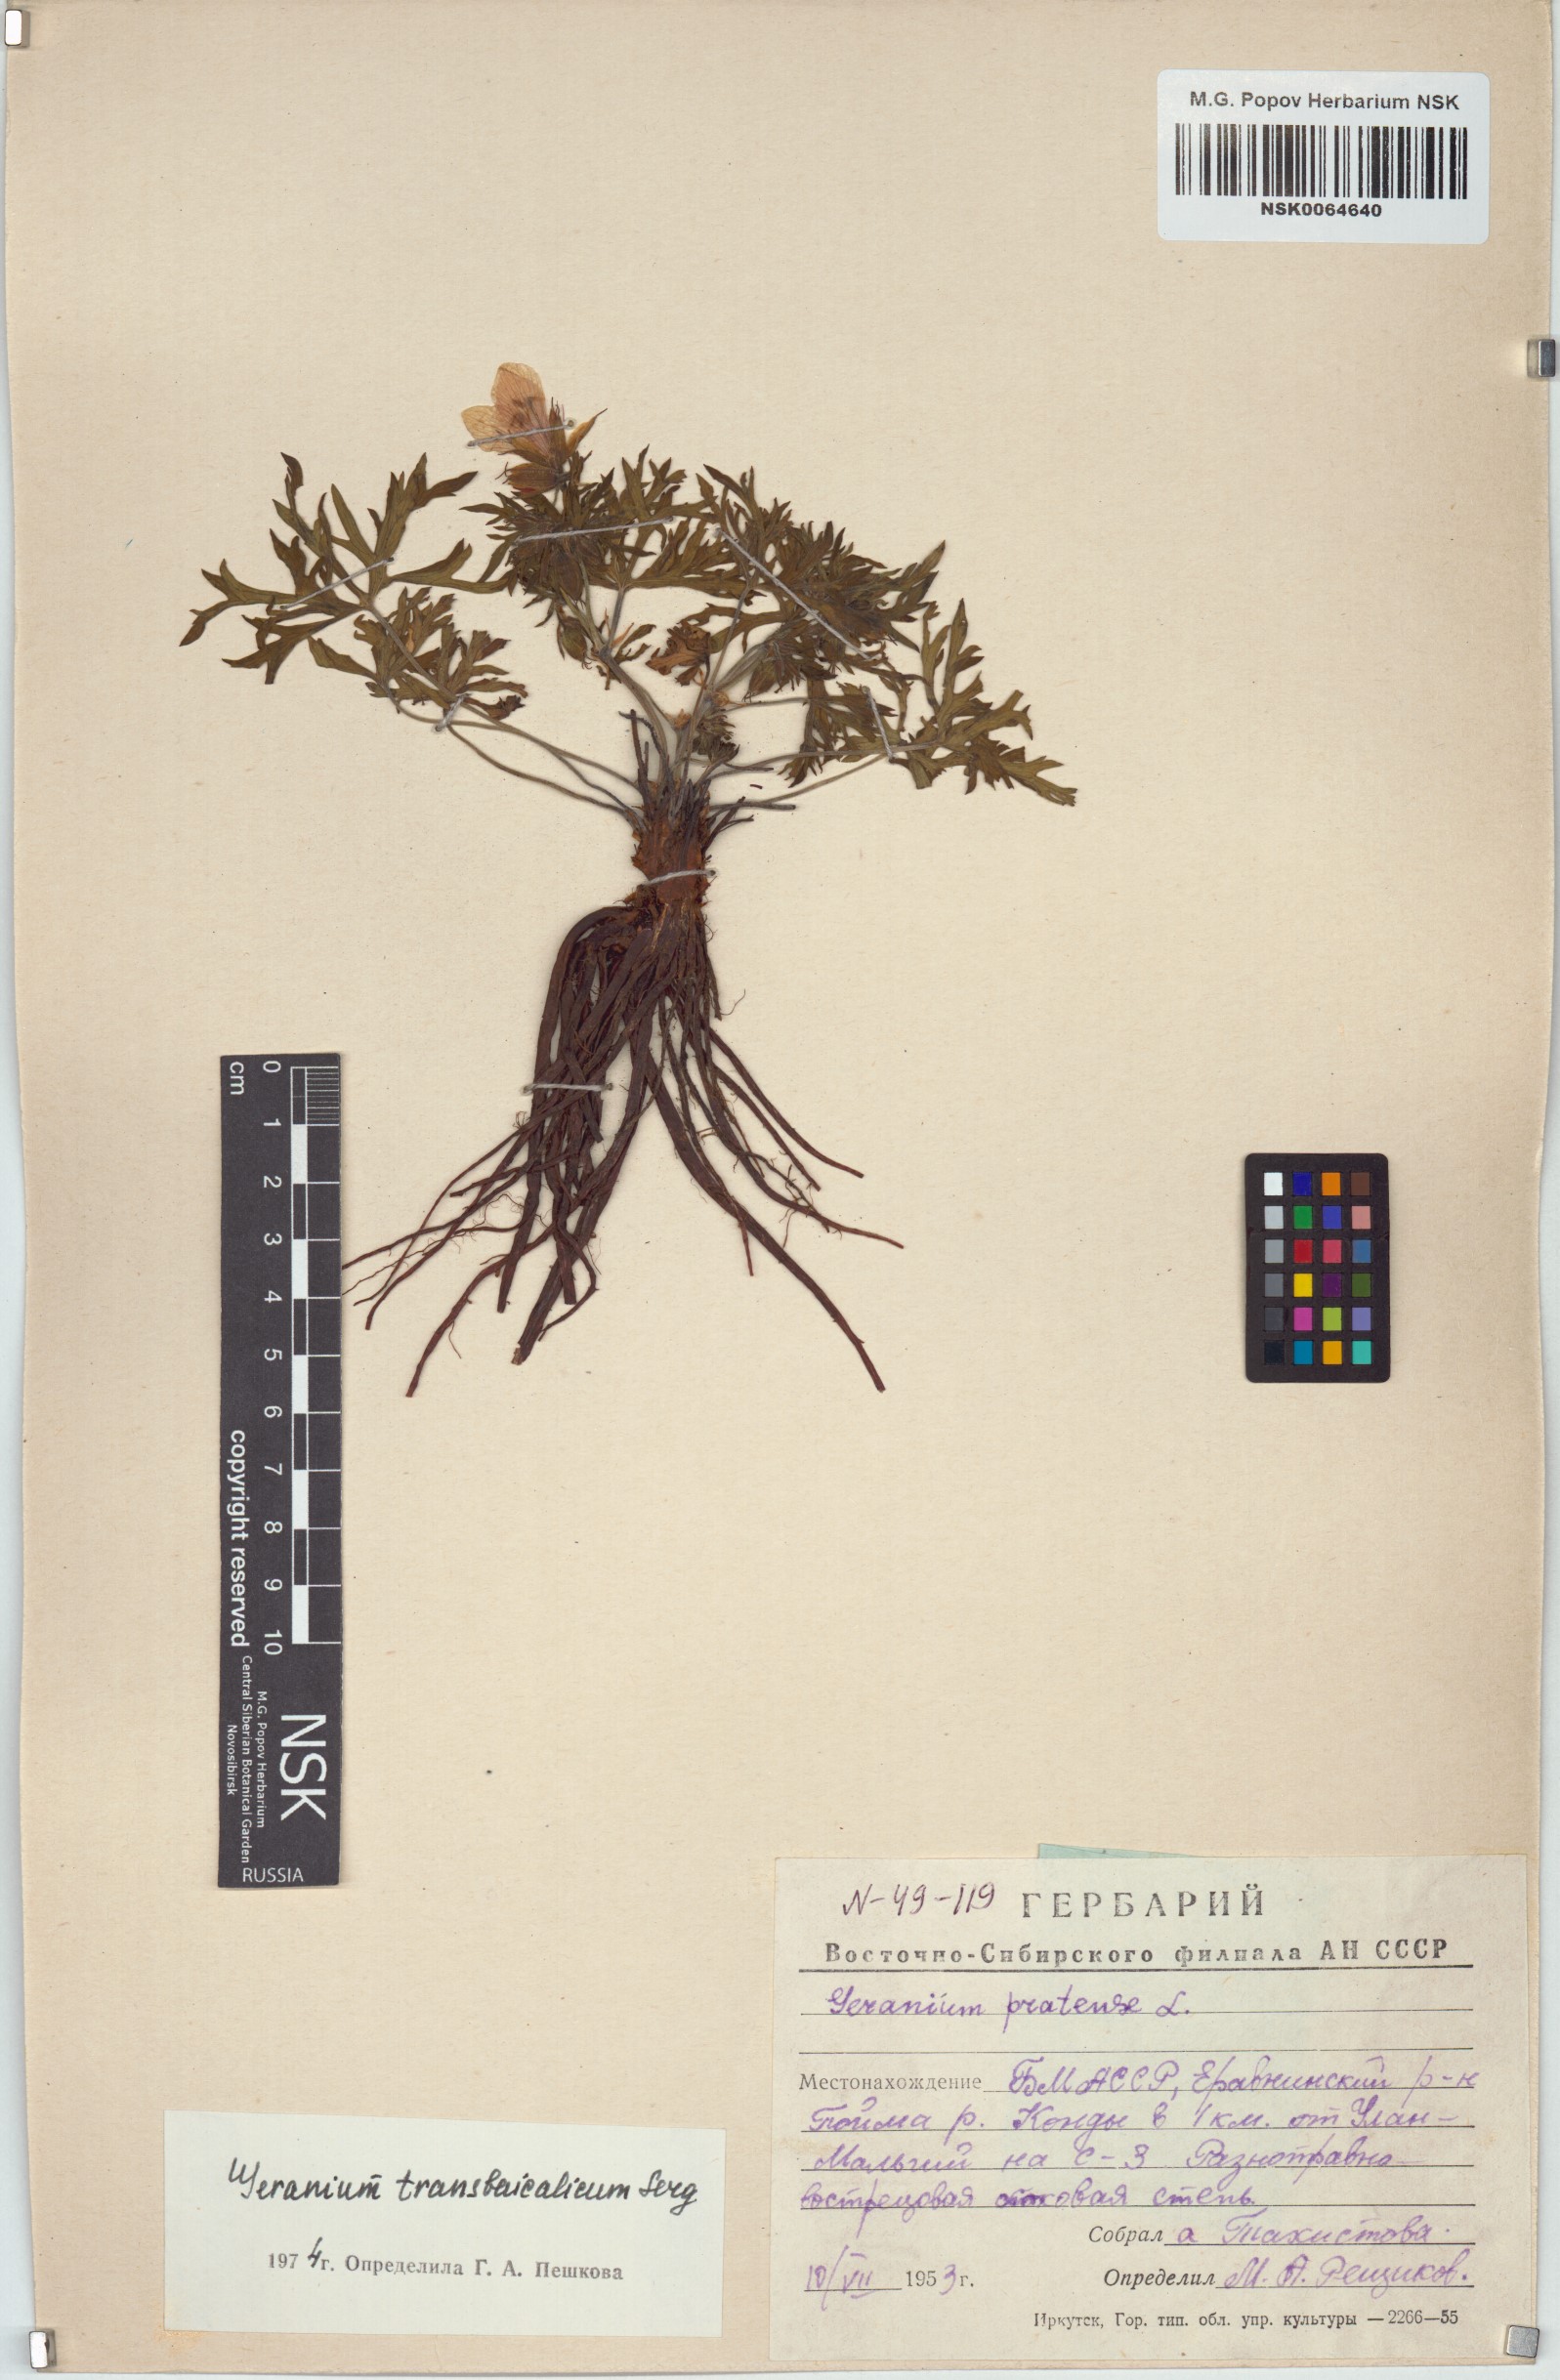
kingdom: Plantae
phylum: Tracheophyta
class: Magnoliopsida
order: Geraniales
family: Geraniaceae
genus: Geranium
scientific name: Geranium pratense
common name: Meadow crane's-bill
